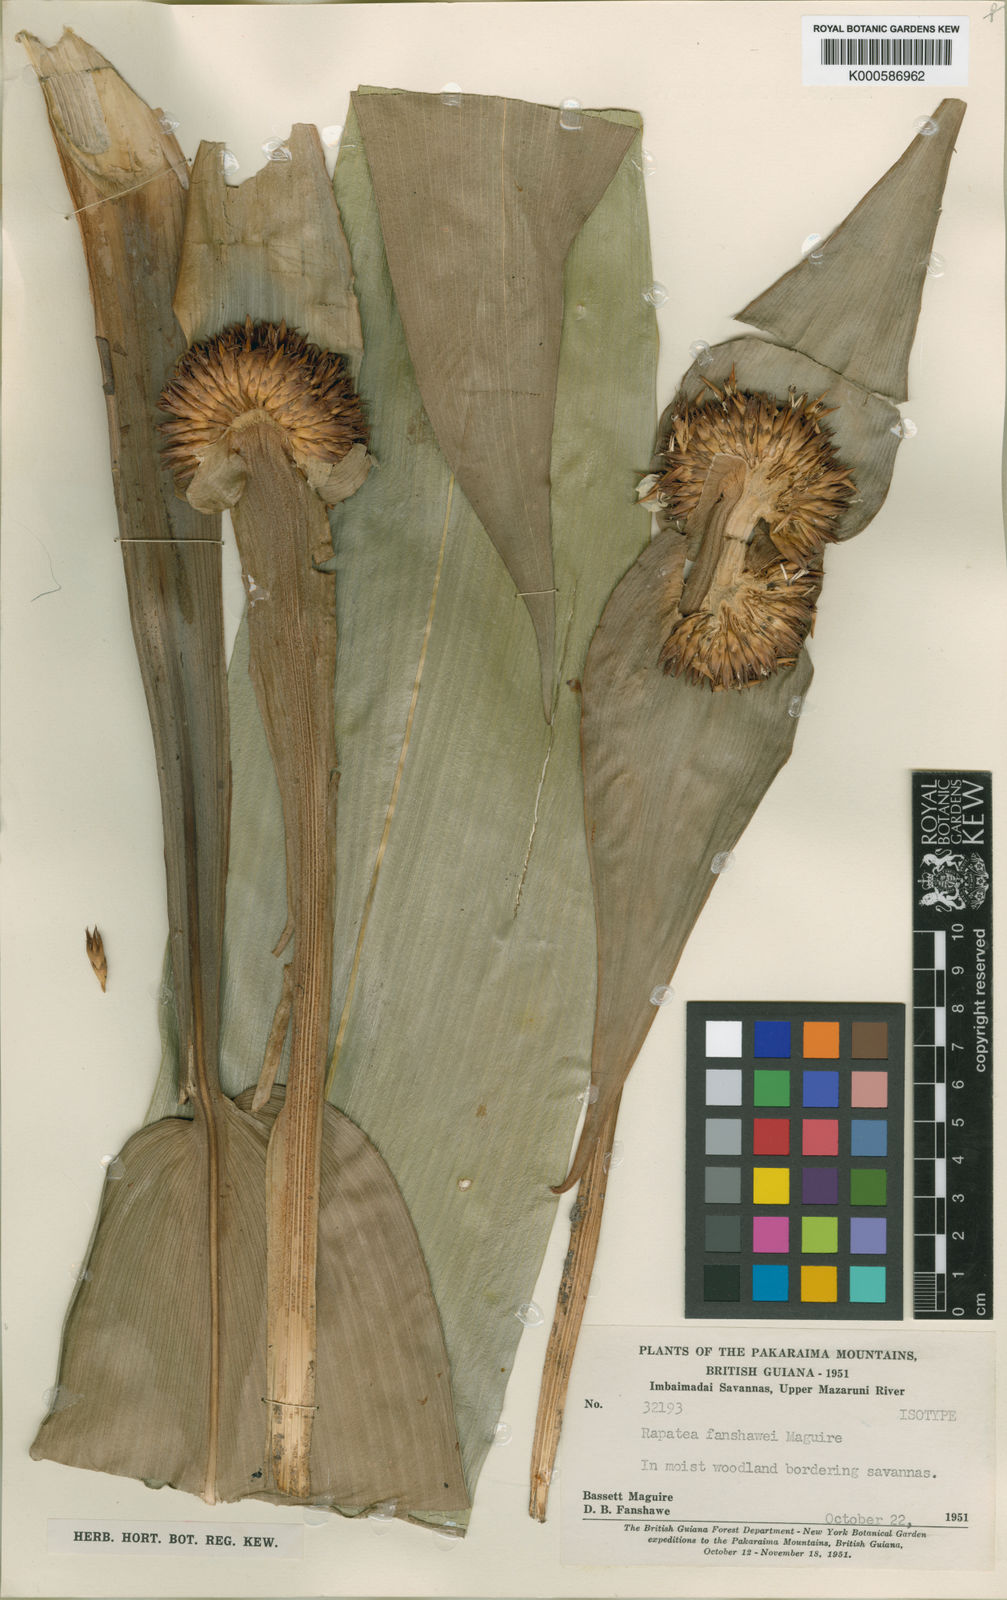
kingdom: Plantae
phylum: Tracheophyta
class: Liliopsida
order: Poales
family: Rapateaceae
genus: Rapatea
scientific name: Rapatea fanshawei
